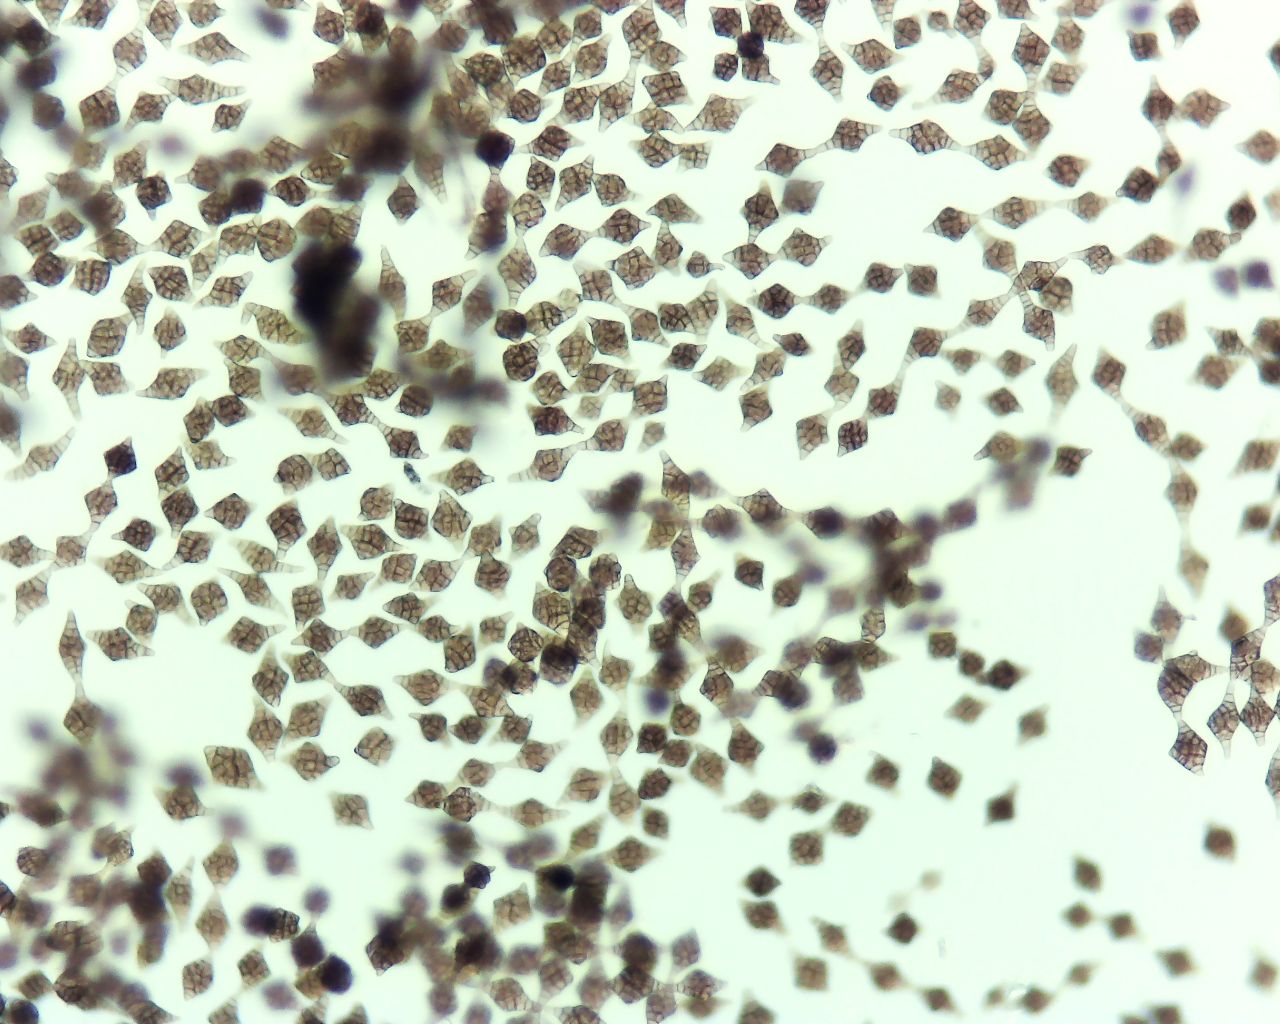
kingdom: Fungi
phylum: Ascomycota
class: Dothideomycetes
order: Pleosporales
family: Melanommataceae
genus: Phragmotrichum
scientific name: Phragmotrichum chailletii
